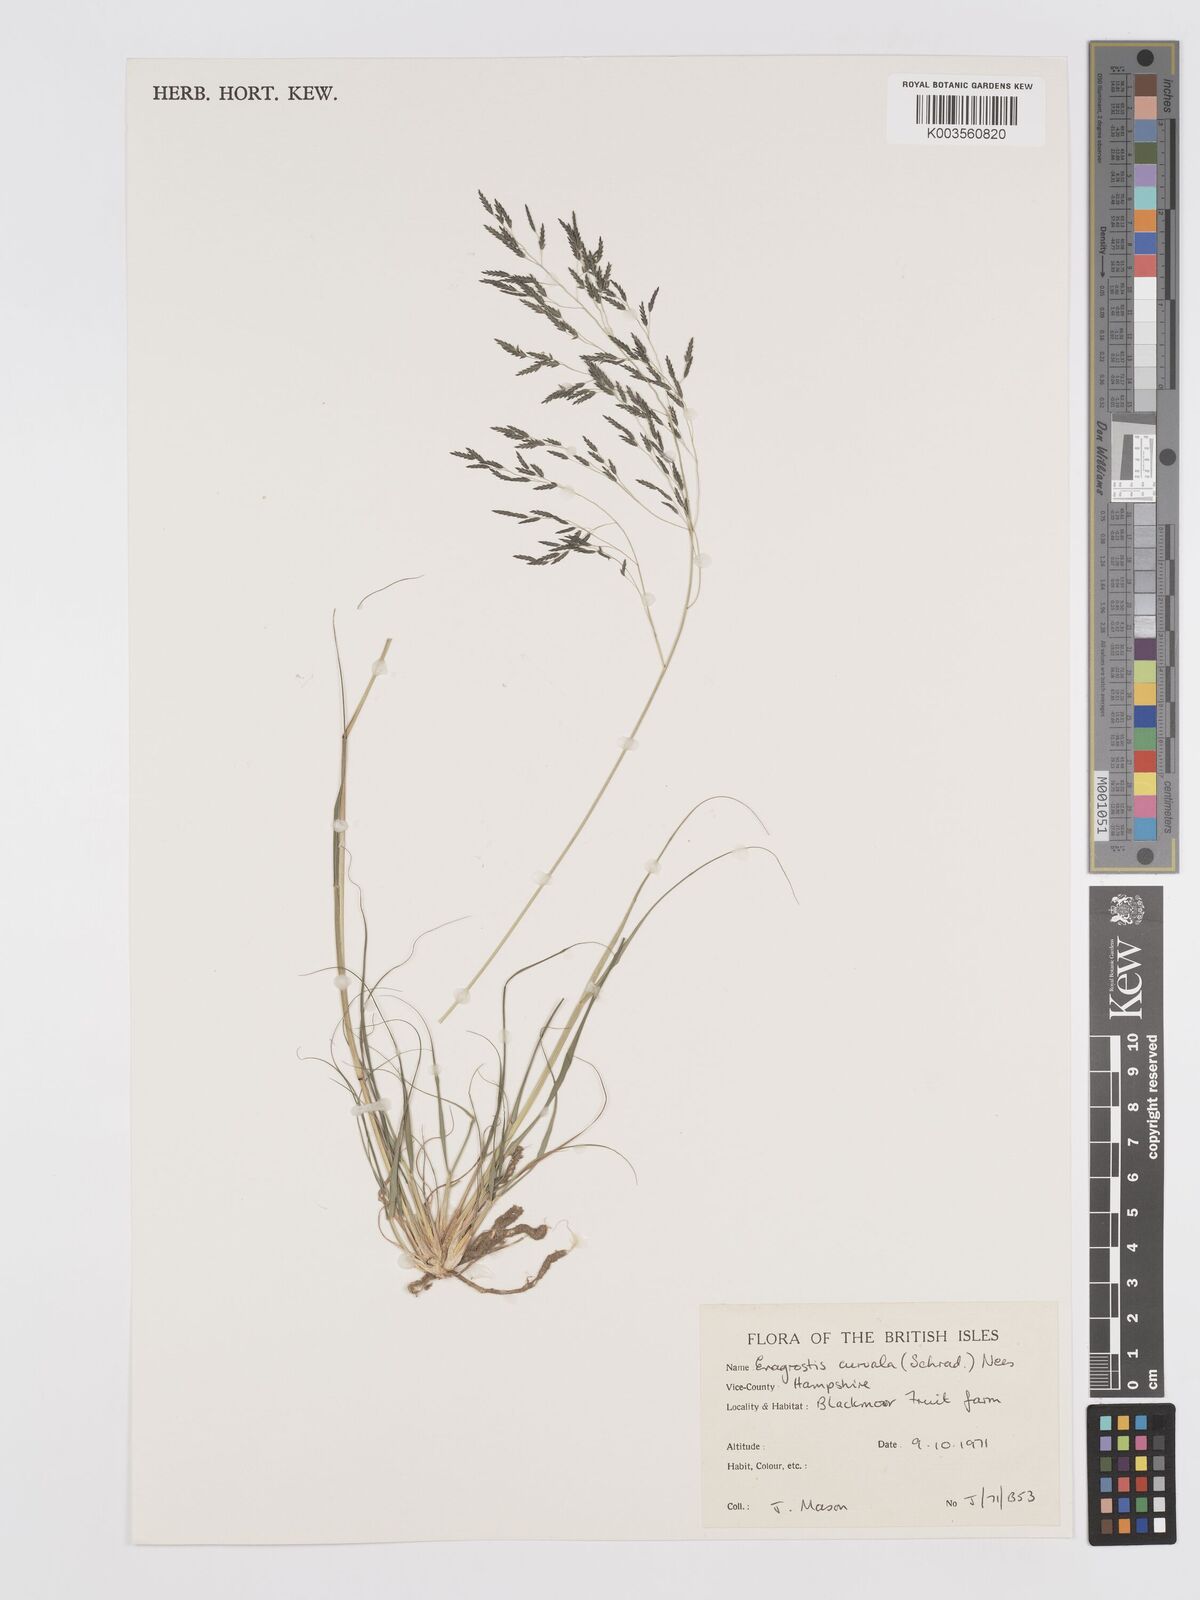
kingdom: Plantae
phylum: Tracheophyta
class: Liliopsida
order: Poales
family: Poaceae
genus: Eragrostis
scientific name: Eragrostis curvula
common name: African love-grass
